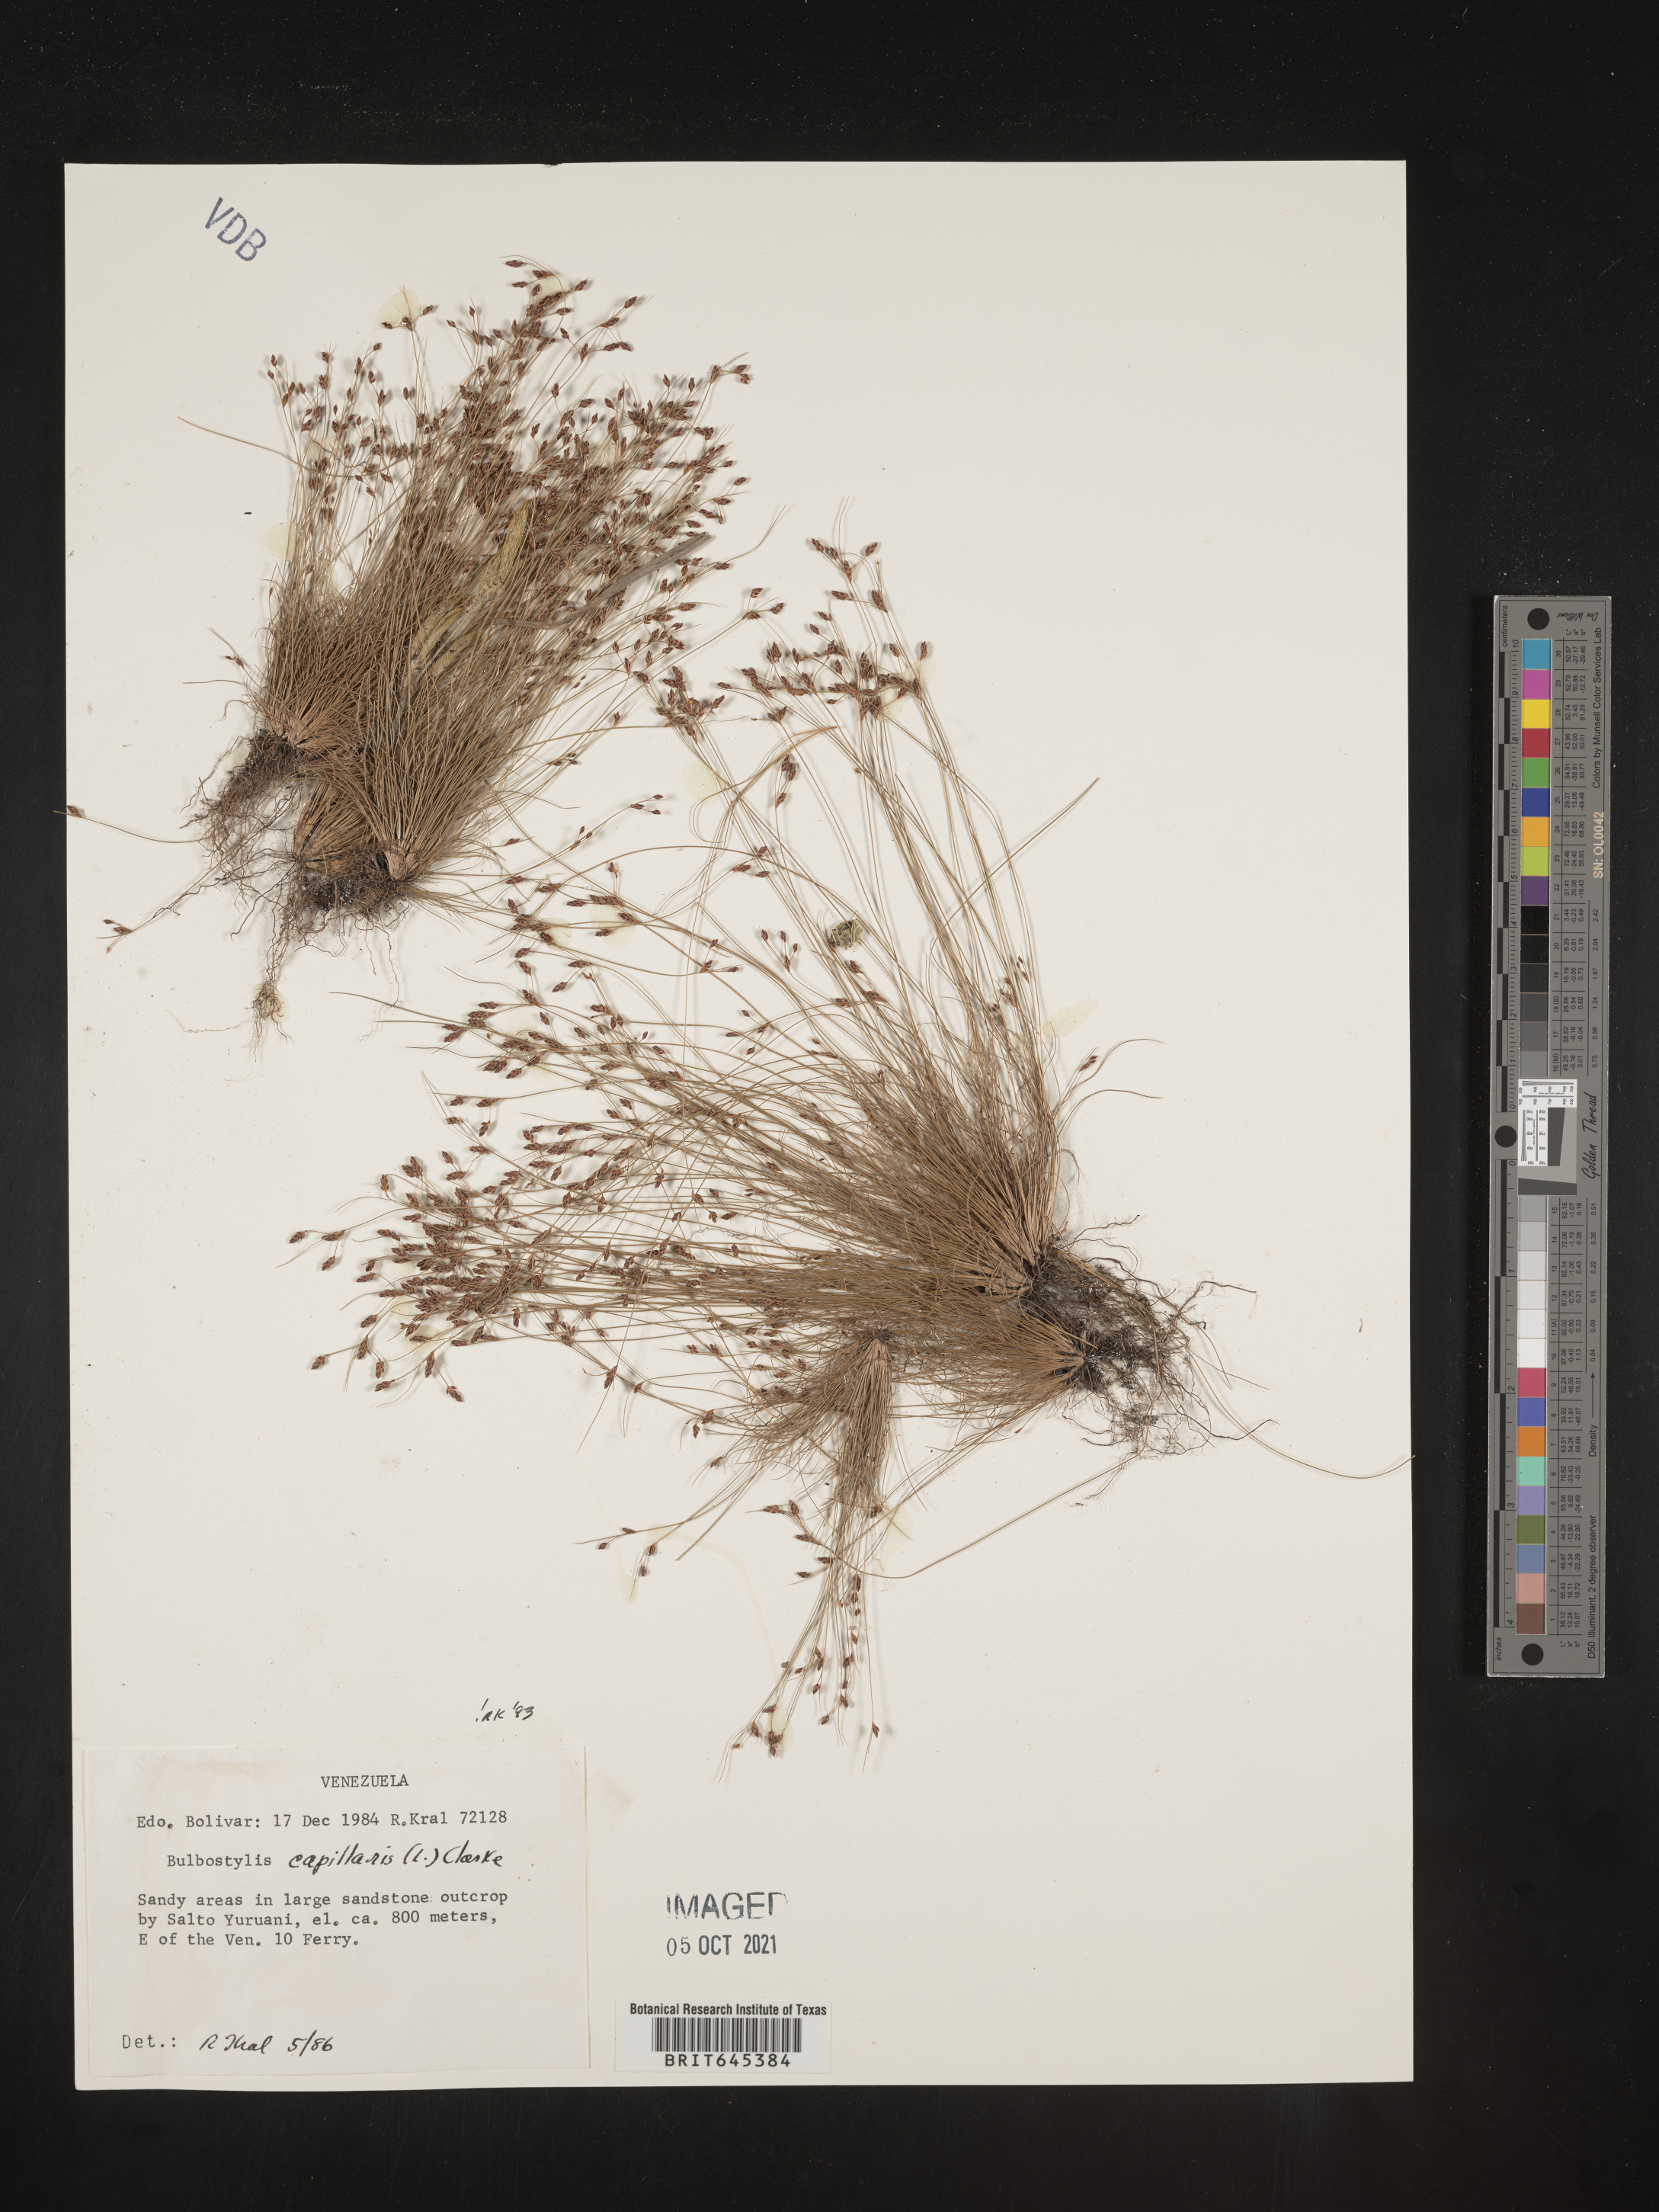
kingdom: Plantae
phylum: Tracheophyta
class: Liliopsida
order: Poales
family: Cyperaceae
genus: Bulbostylis
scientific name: Bulbostylis capillaris
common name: Densetuft hairsedge
